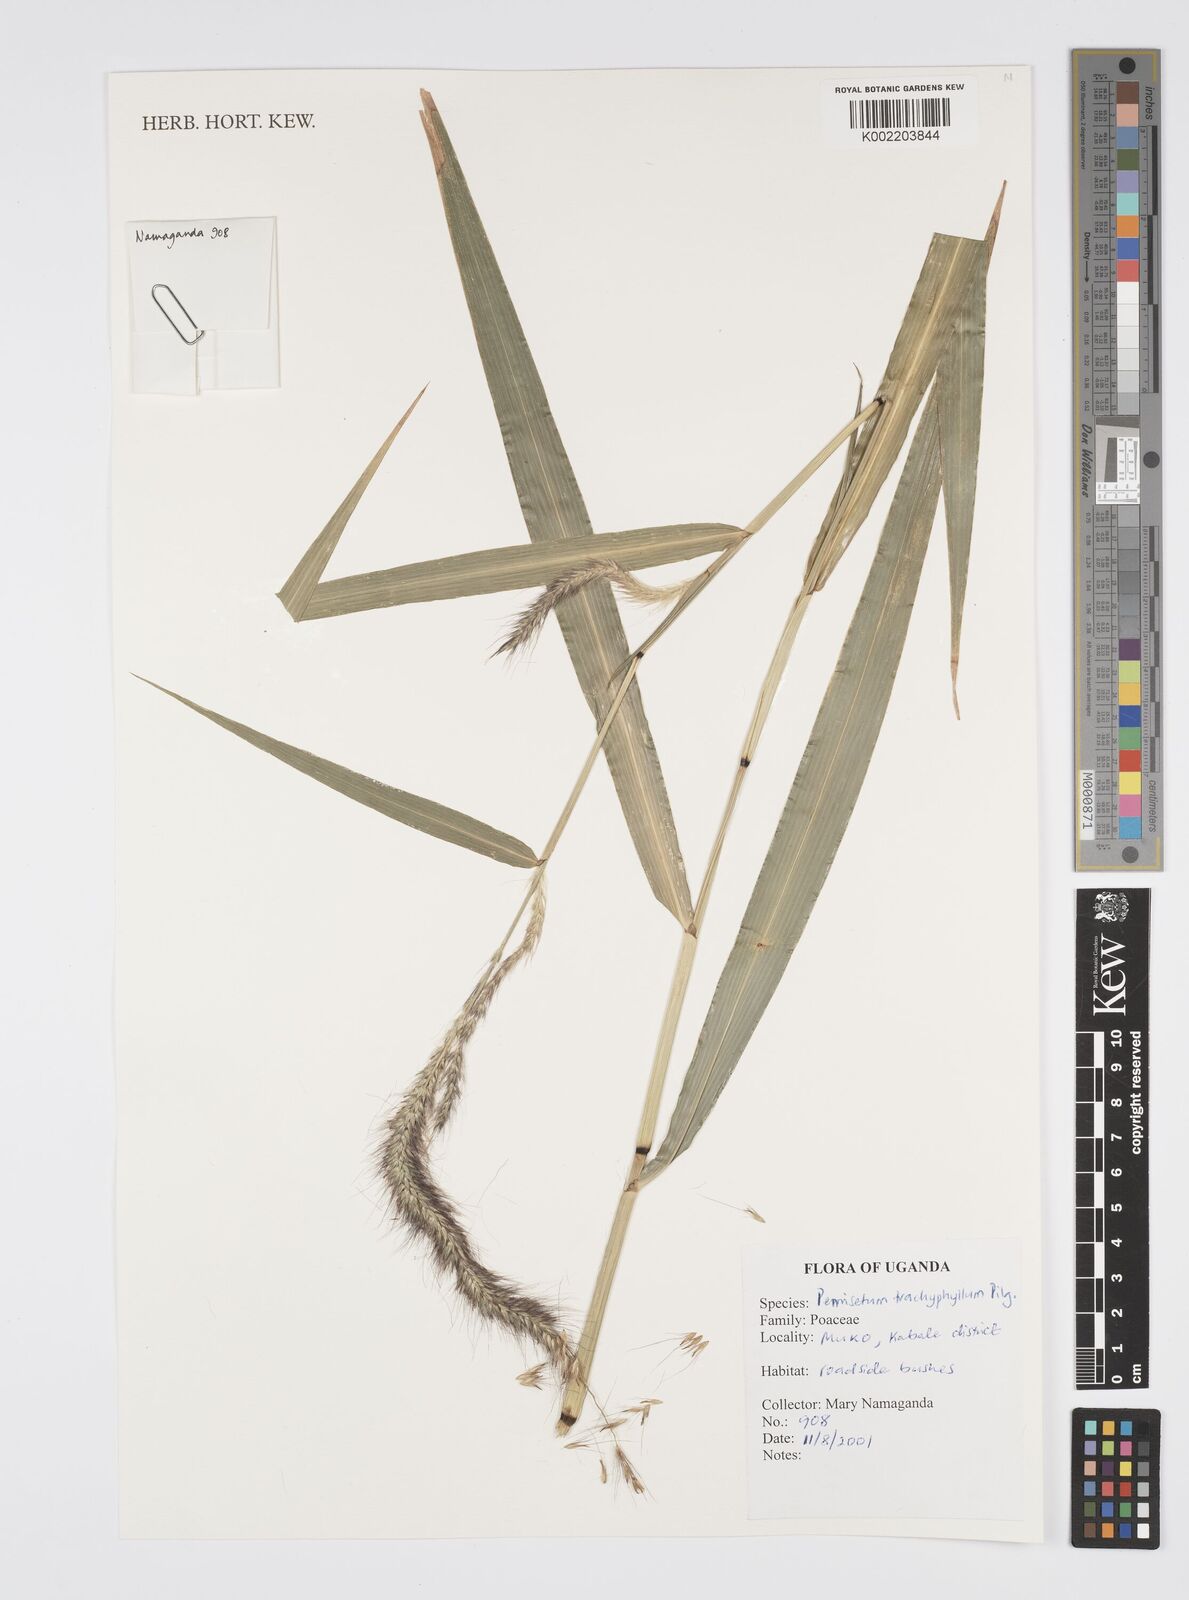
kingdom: Plantae
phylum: Tracheophyta
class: Liliopsida
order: Poales
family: Poaceae
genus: Cenchrus
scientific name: Cenchrus trachyphyllus
